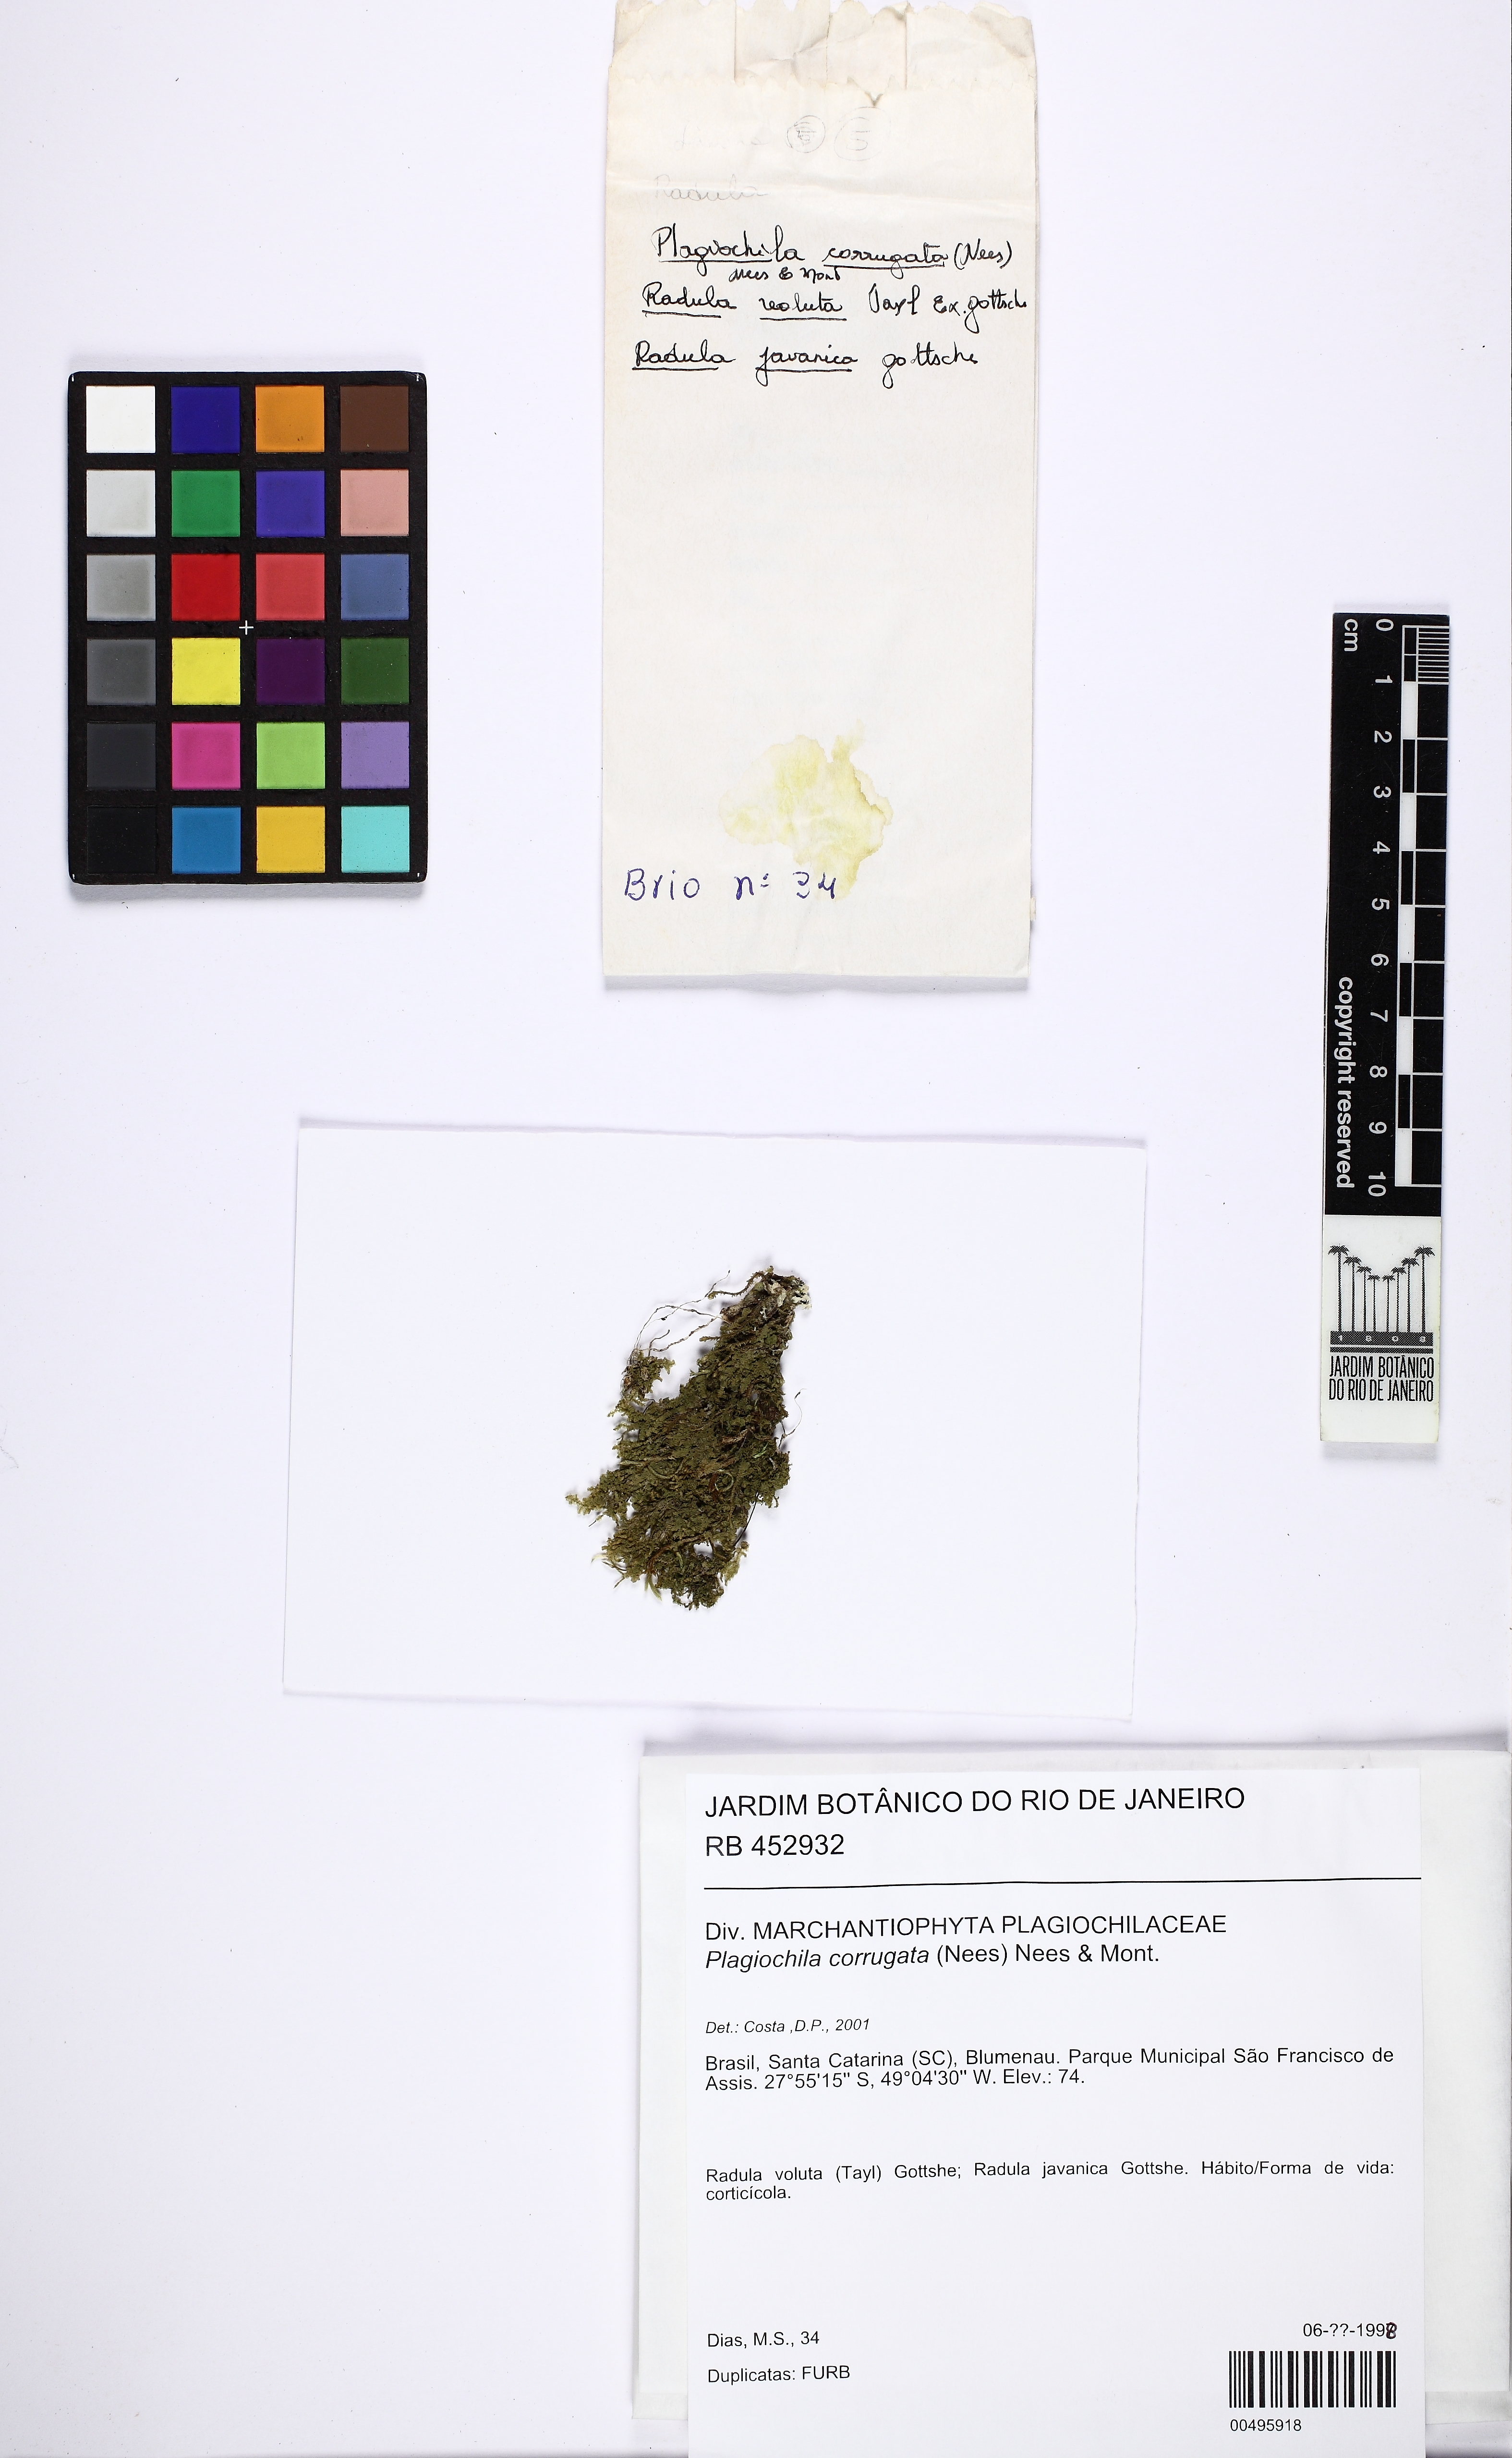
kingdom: Plantae
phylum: Marchantiophyta
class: Jungermanniopsida
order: Jungermanniales
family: Plagiochilaceae
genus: Plagiochila
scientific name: Plagiochila corrugata
